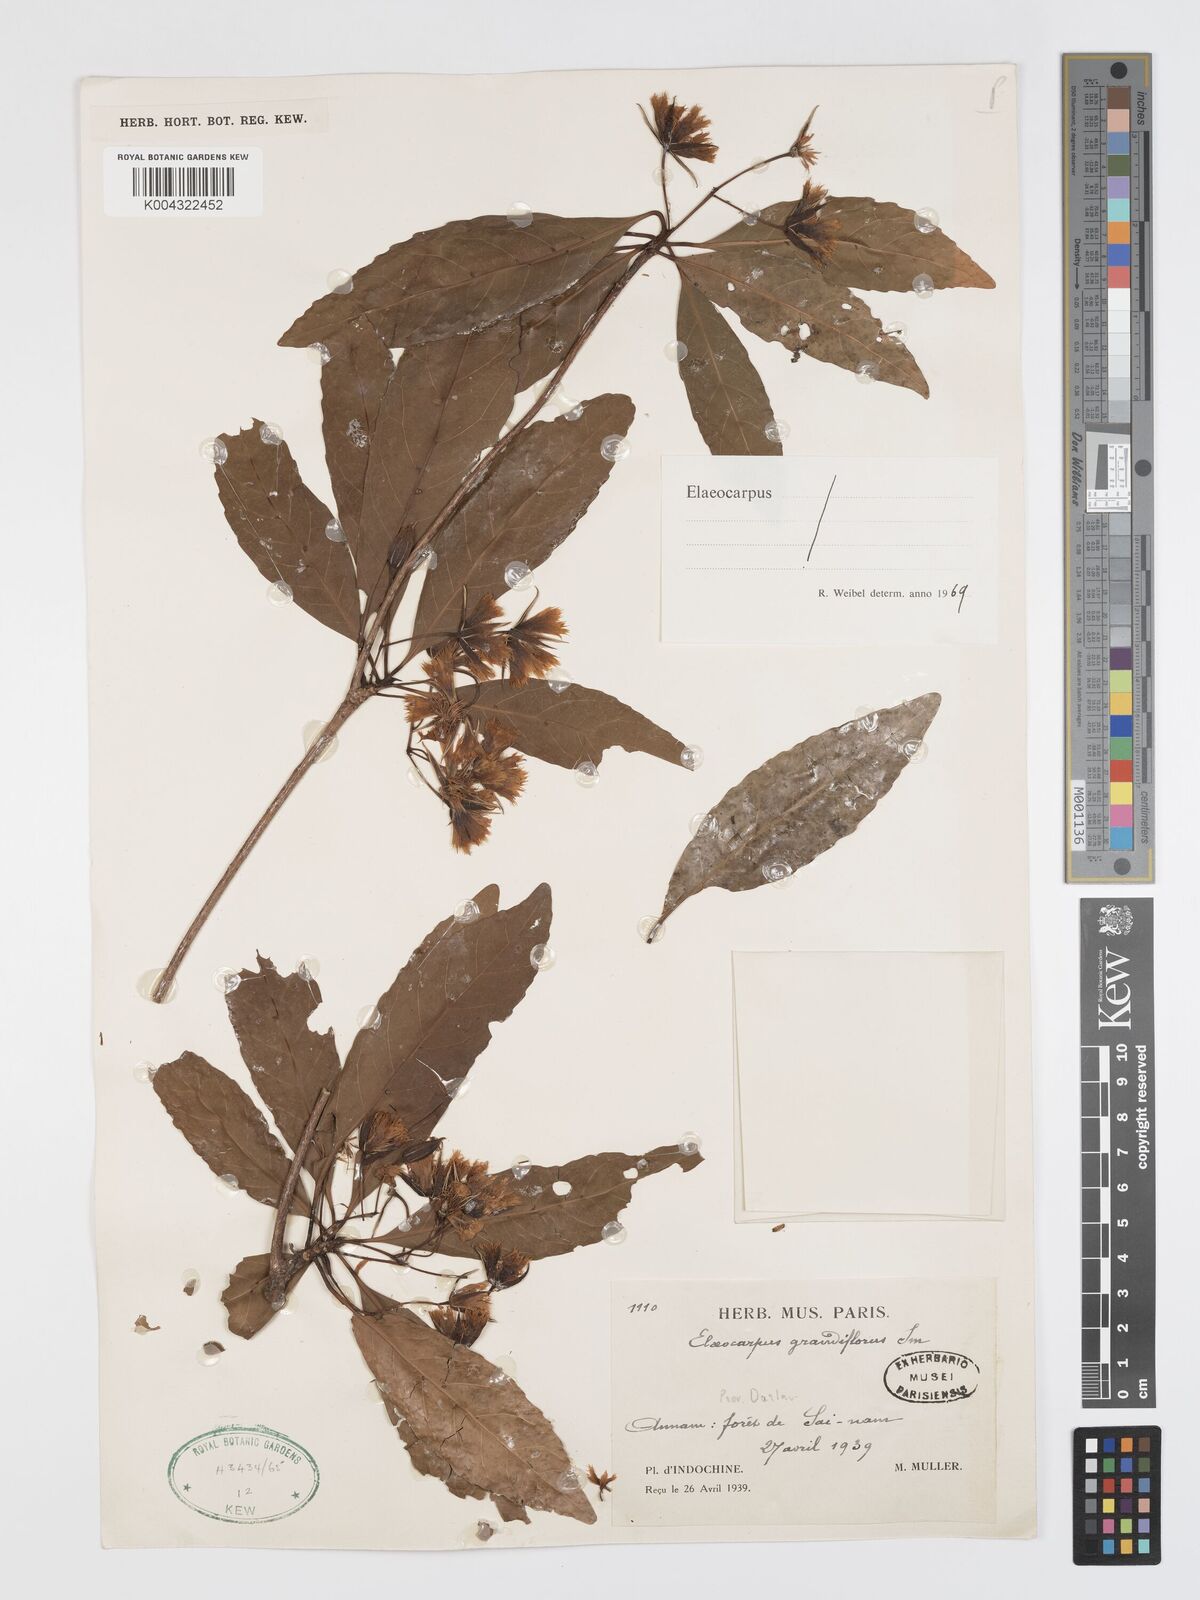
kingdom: Plantae
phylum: Tracheophyta
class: Magnoliopsida
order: Oxalidales
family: Elaeocarpaceae
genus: Elaeocarpus
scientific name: Elaeocarpus grandiflorus
